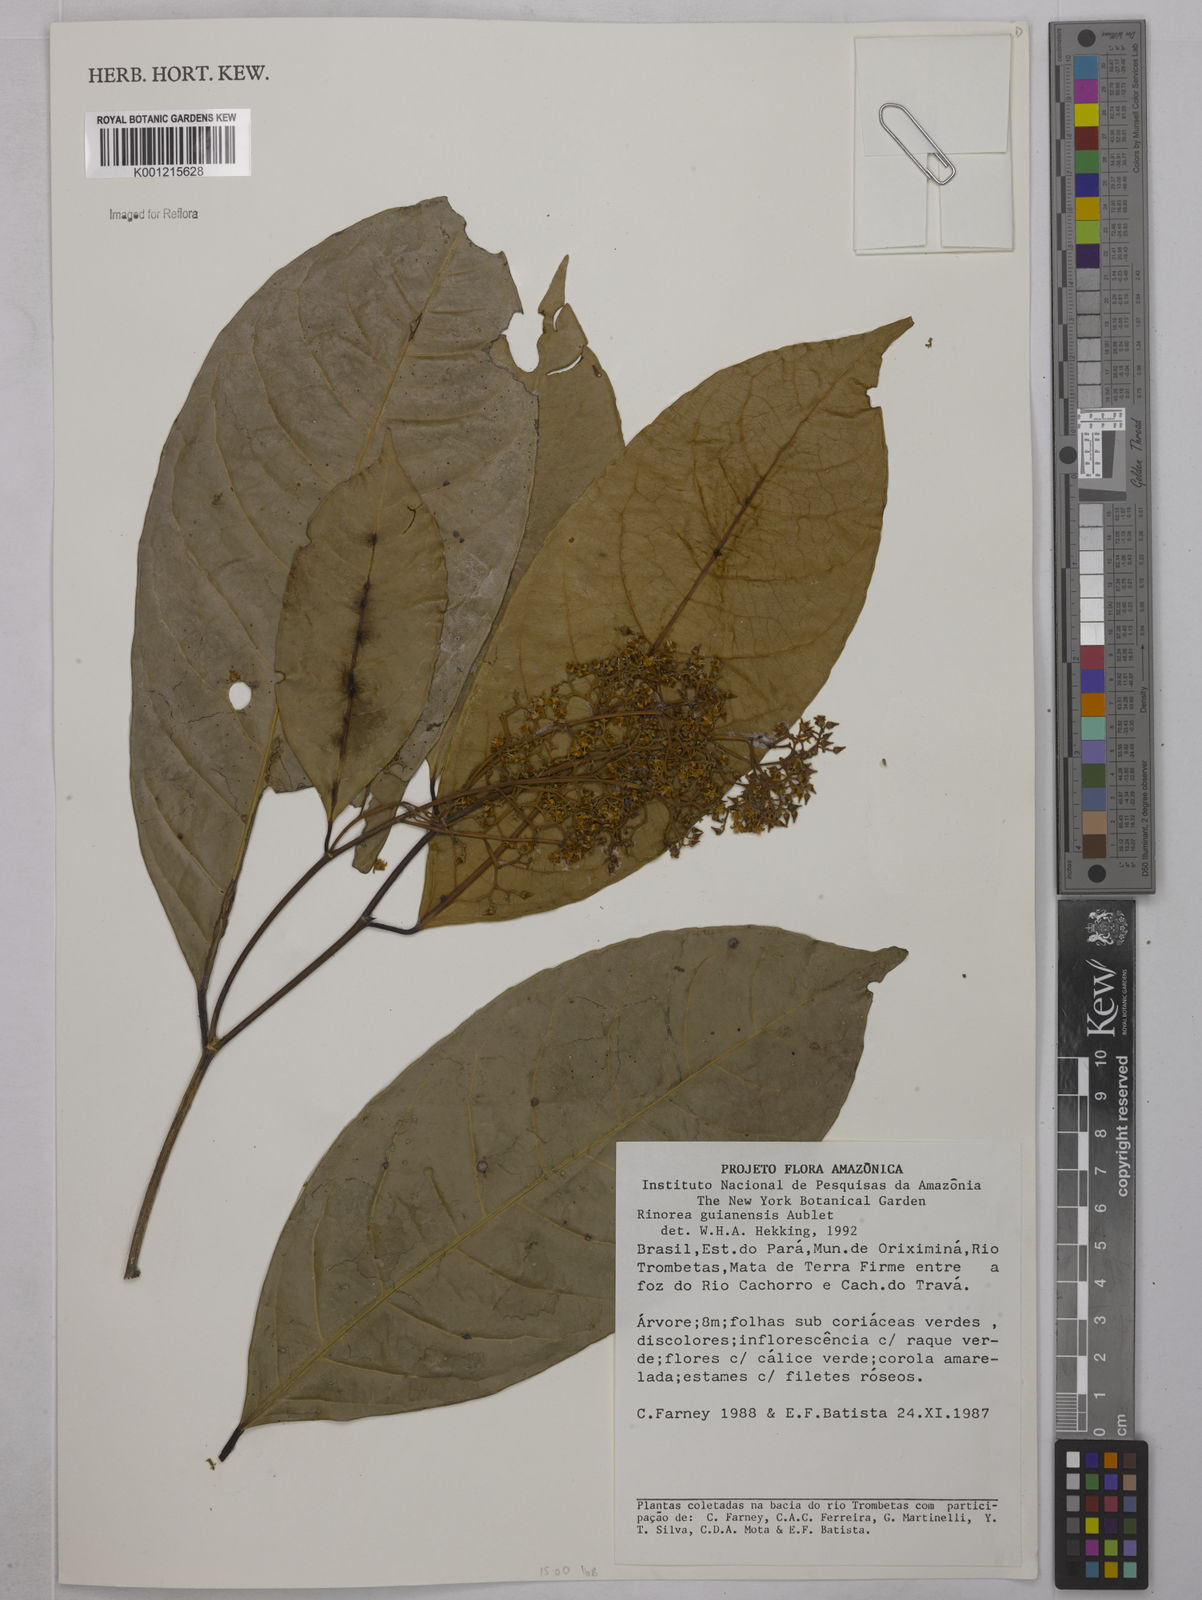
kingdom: Plantae
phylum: Tracheophyta
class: Magnoliopsida
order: Malpighiales
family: Violaceae
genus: Rinorea
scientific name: Rinorea guianensis
